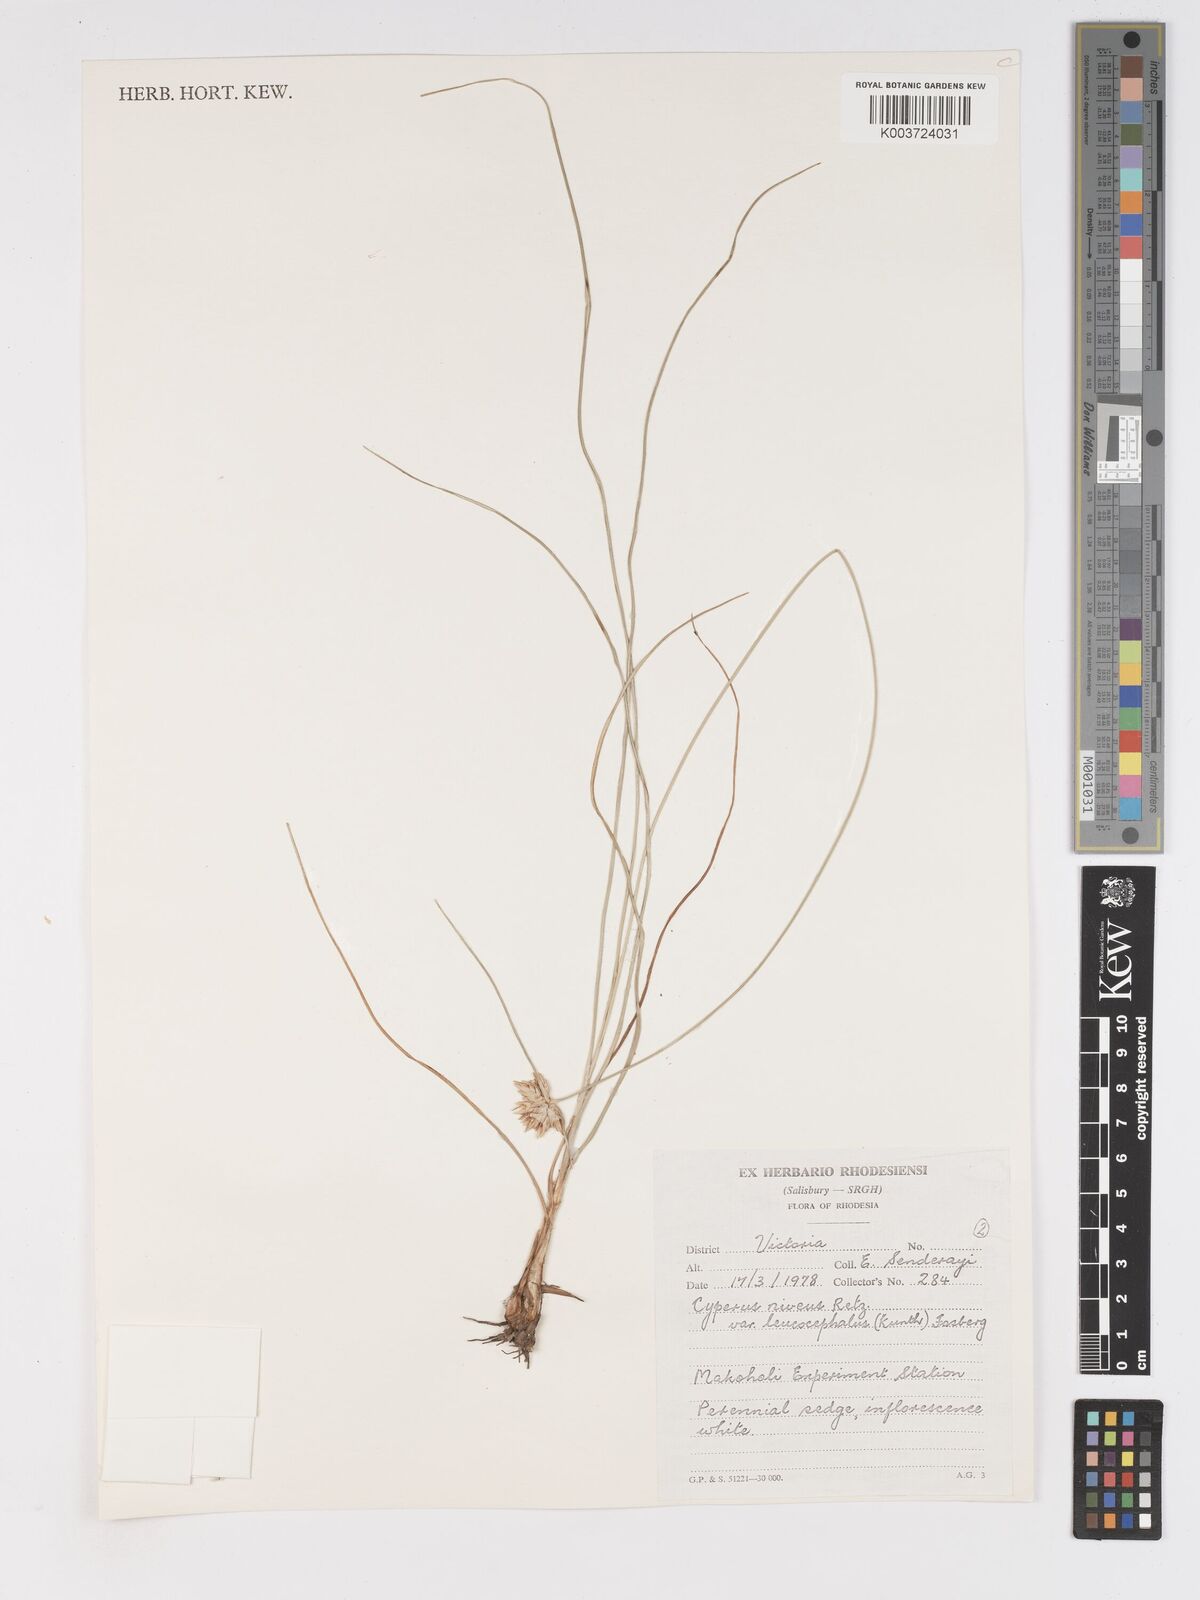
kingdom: Plantae
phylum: Tracheophyta
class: Liliopsida
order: Poales
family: Cyperaceae
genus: Cyperus
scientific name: Cyperus niveus
